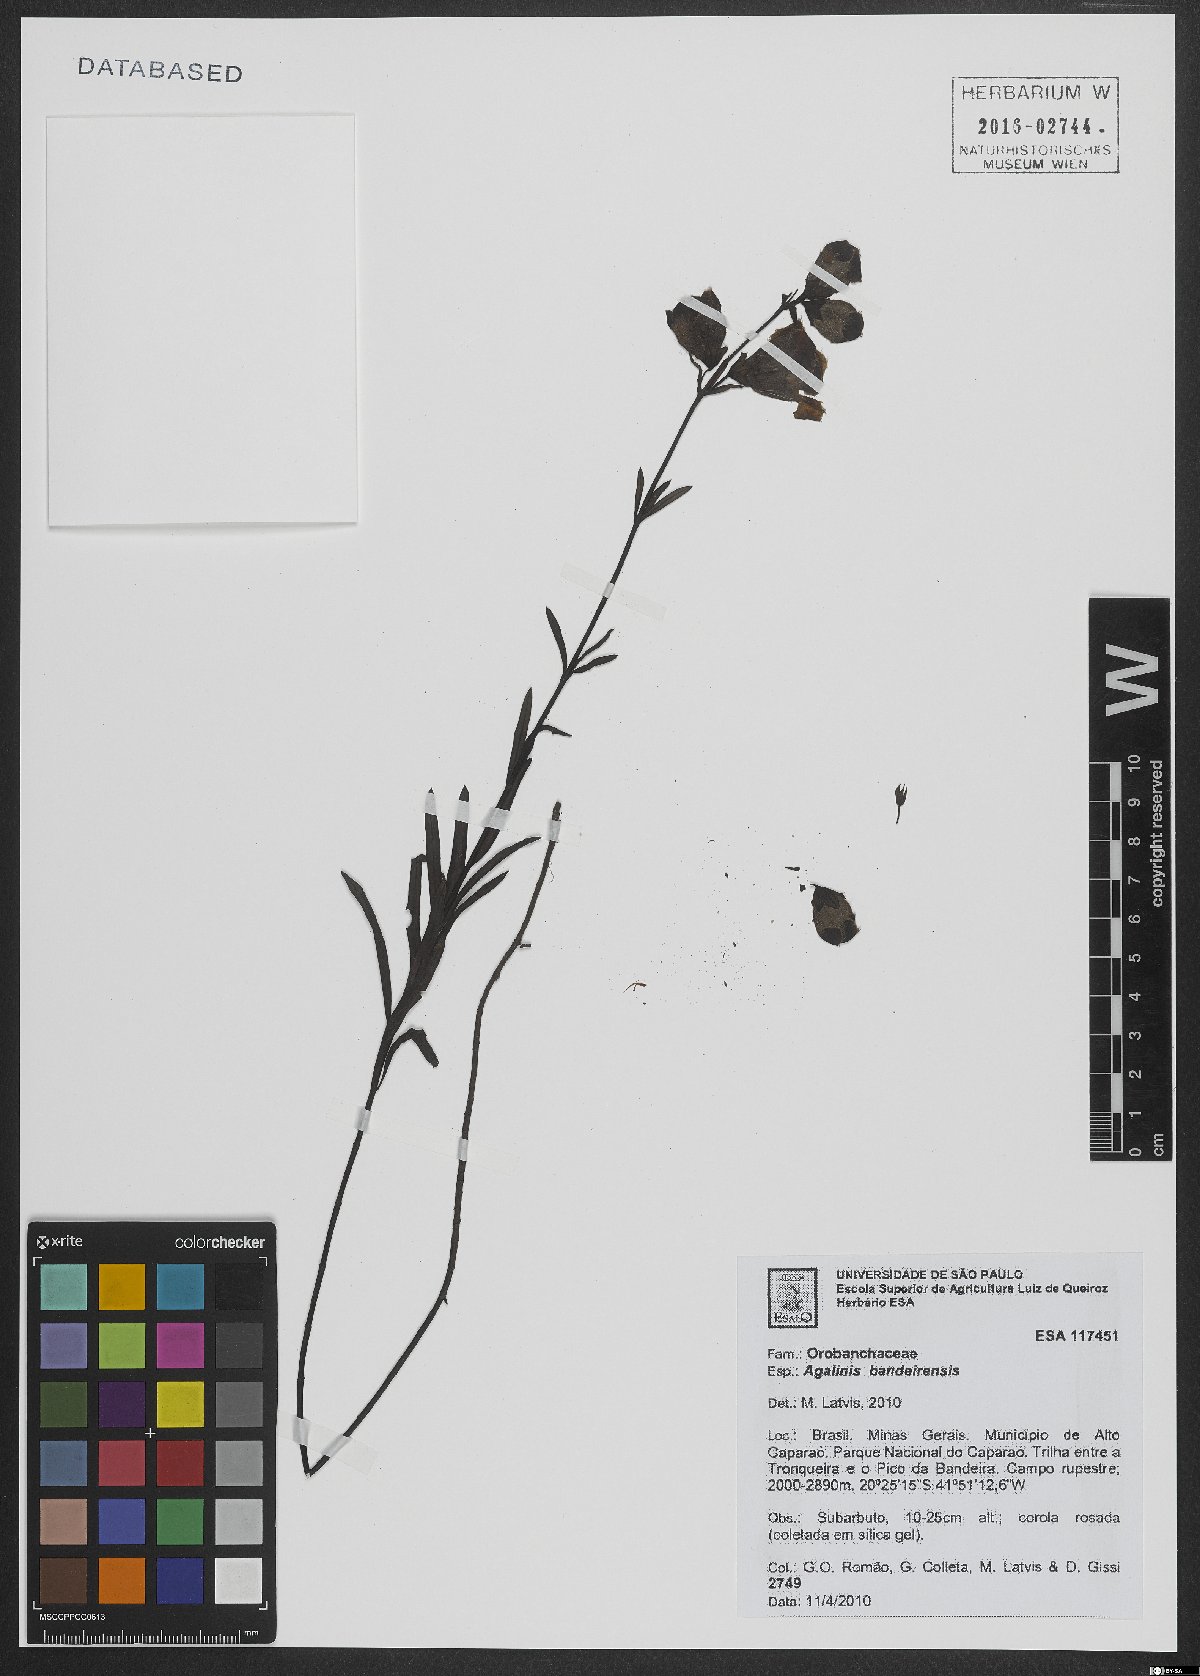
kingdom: Plantae
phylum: Tracheophyta
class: Magnoliopsida
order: Lamiales
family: Orobanchaceae
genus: Agalinis
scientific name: Agalinis bandeirensis
